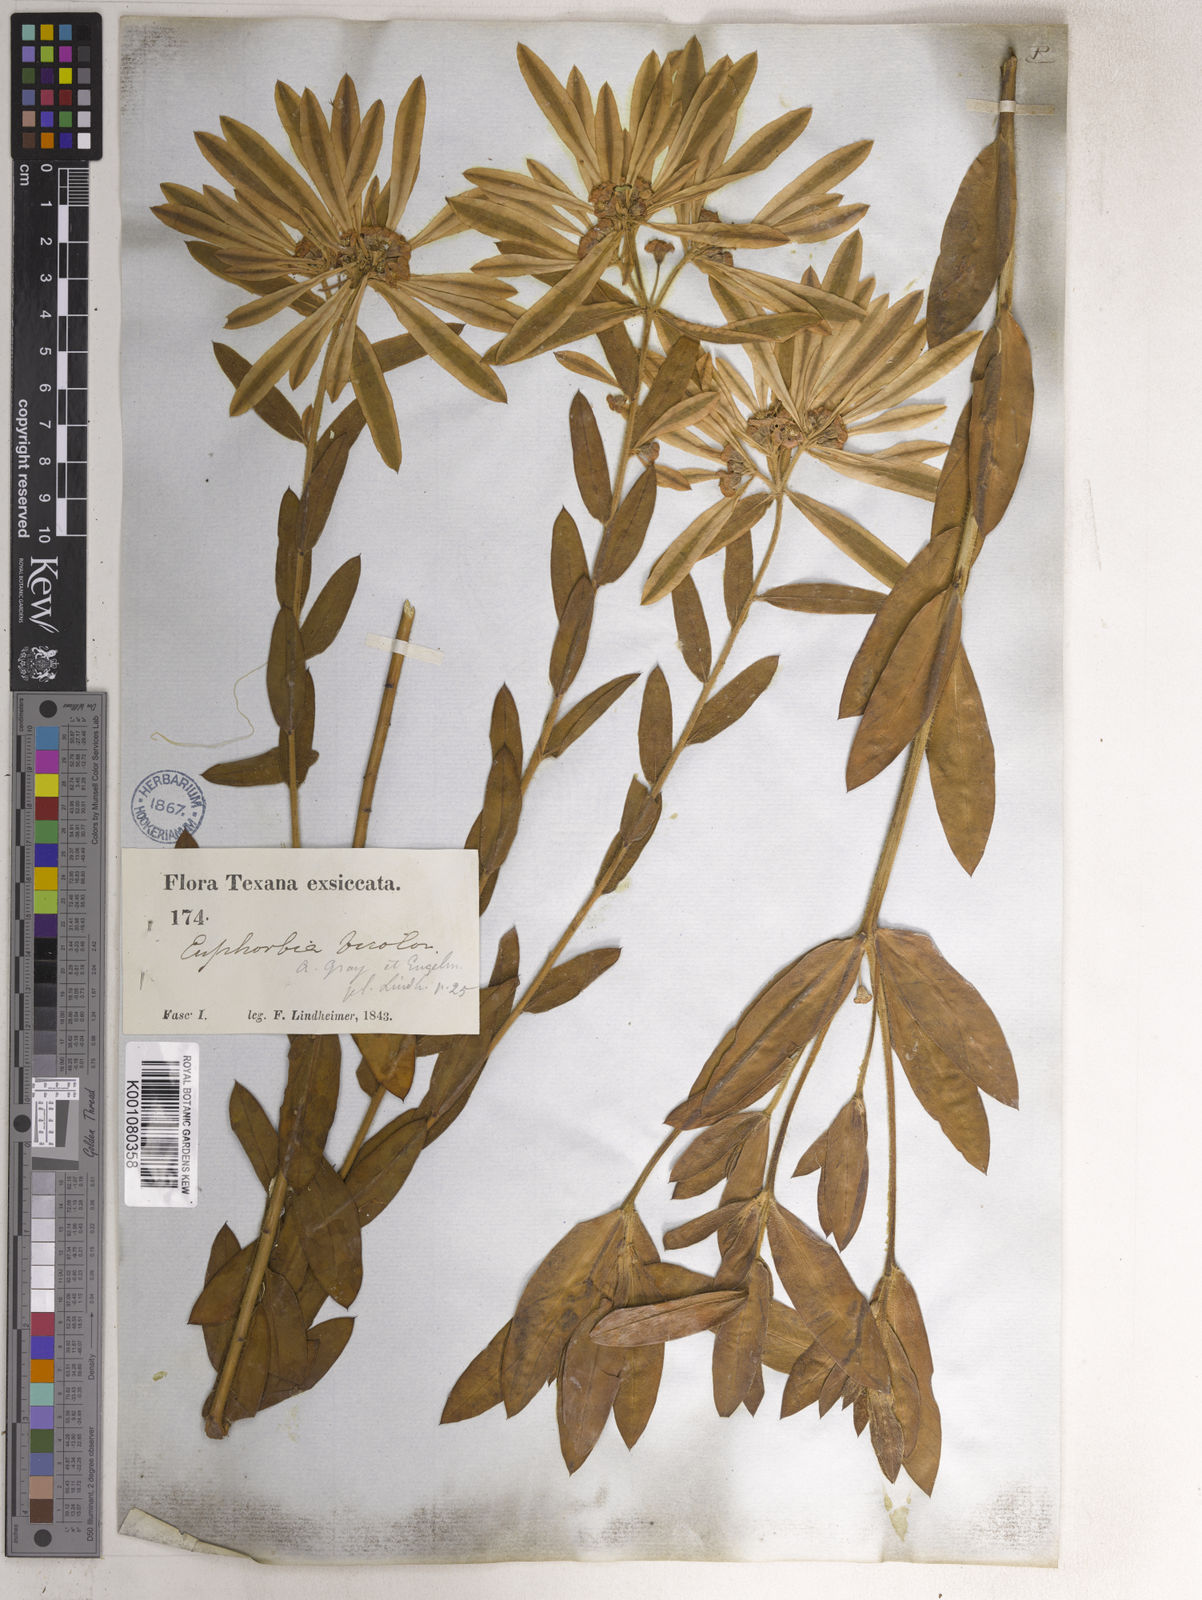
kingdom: Plantae
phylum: Tracheophyta
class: Magnoliopsida
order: Malpighiales
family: Euphorbiaceae
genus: Euphorbia
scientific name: Euphorbia bicolor
